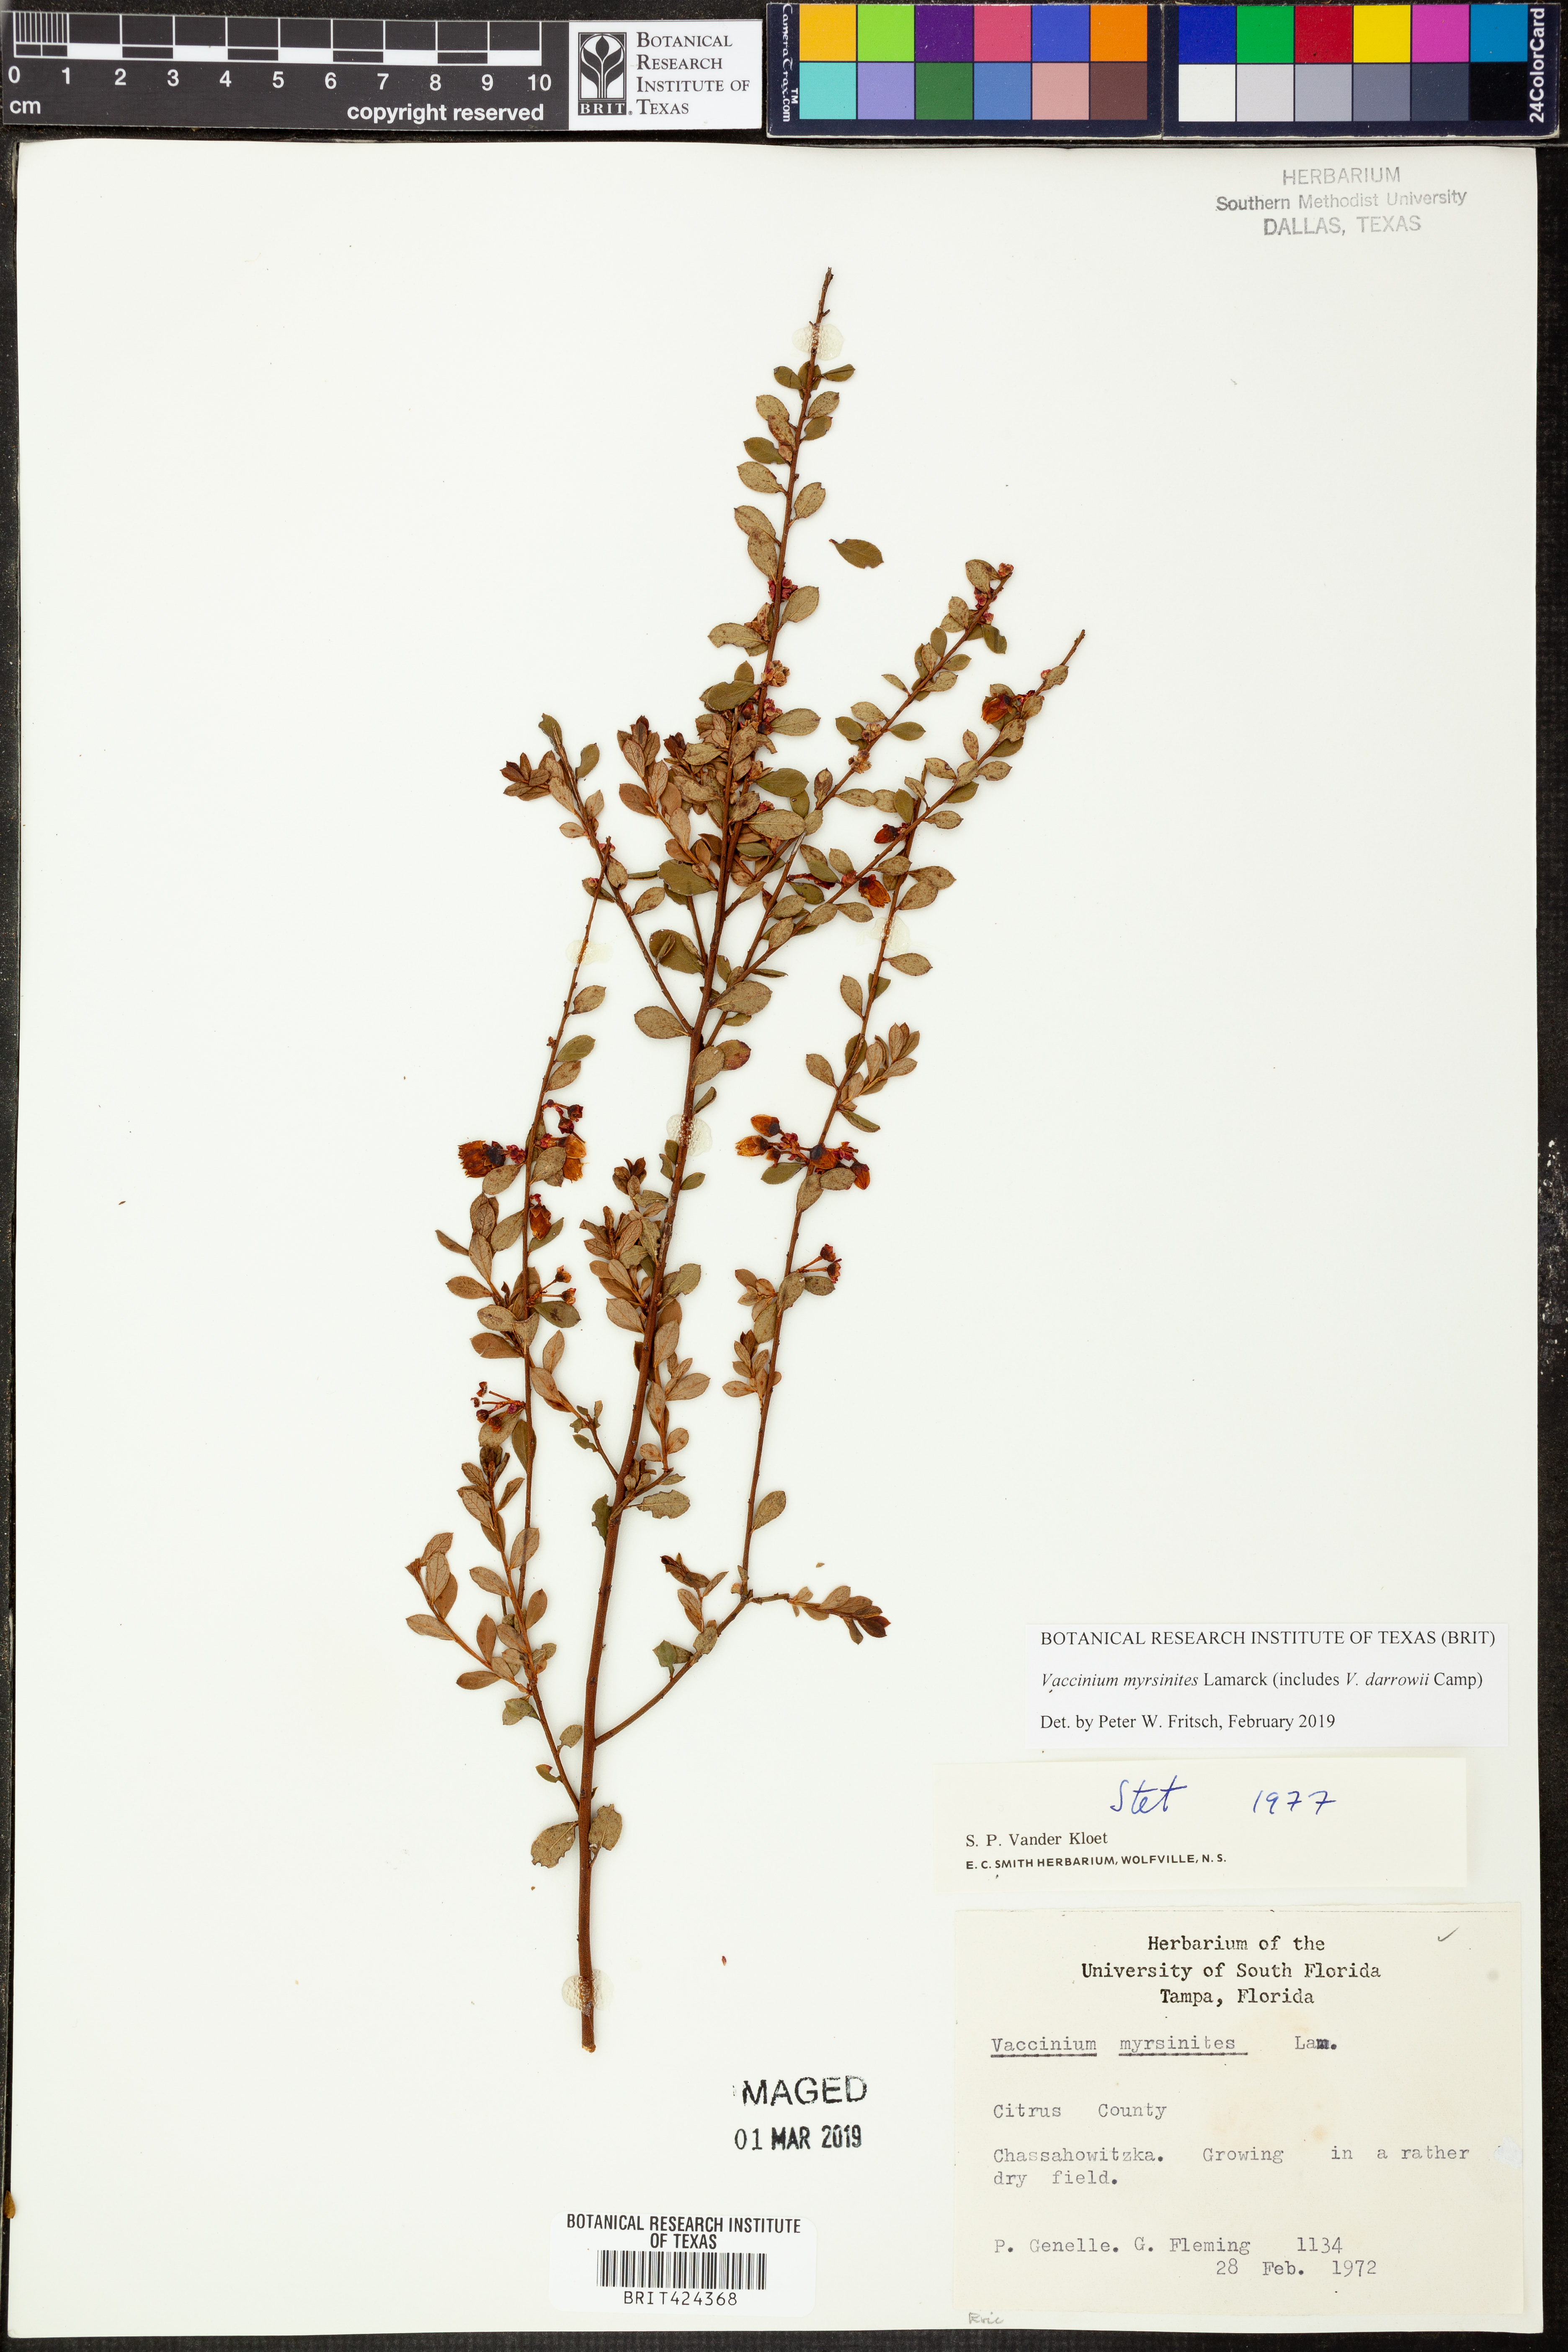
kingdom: Plantae
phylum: Tracheophyta
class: Magnoliopsida
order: Ericales
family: Ericaceae
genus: Vaccinium
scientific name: Vaccinium myrsinites
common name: Evergreen blueberry
